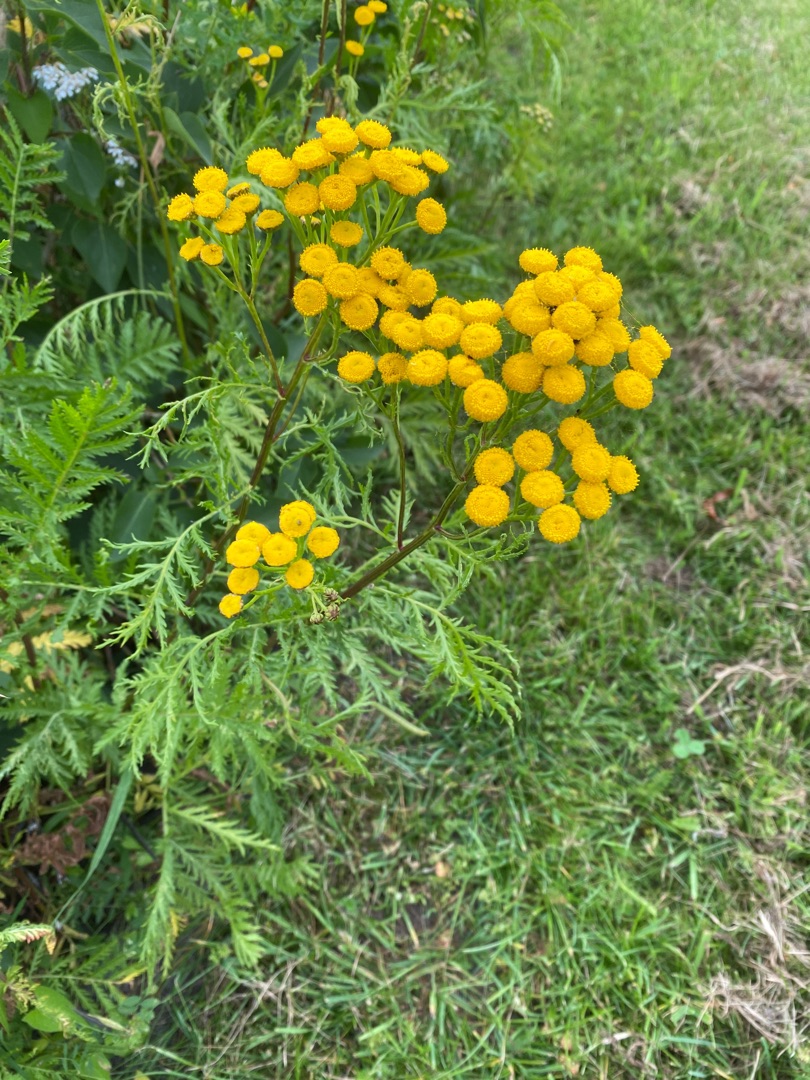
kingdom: Plantae
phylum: Tracheophyta
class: Magnoliopsida
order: Asterales
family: Asteraceae
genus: Tanacetum
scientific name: Tanacetum vulgare
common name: Rejnfan
